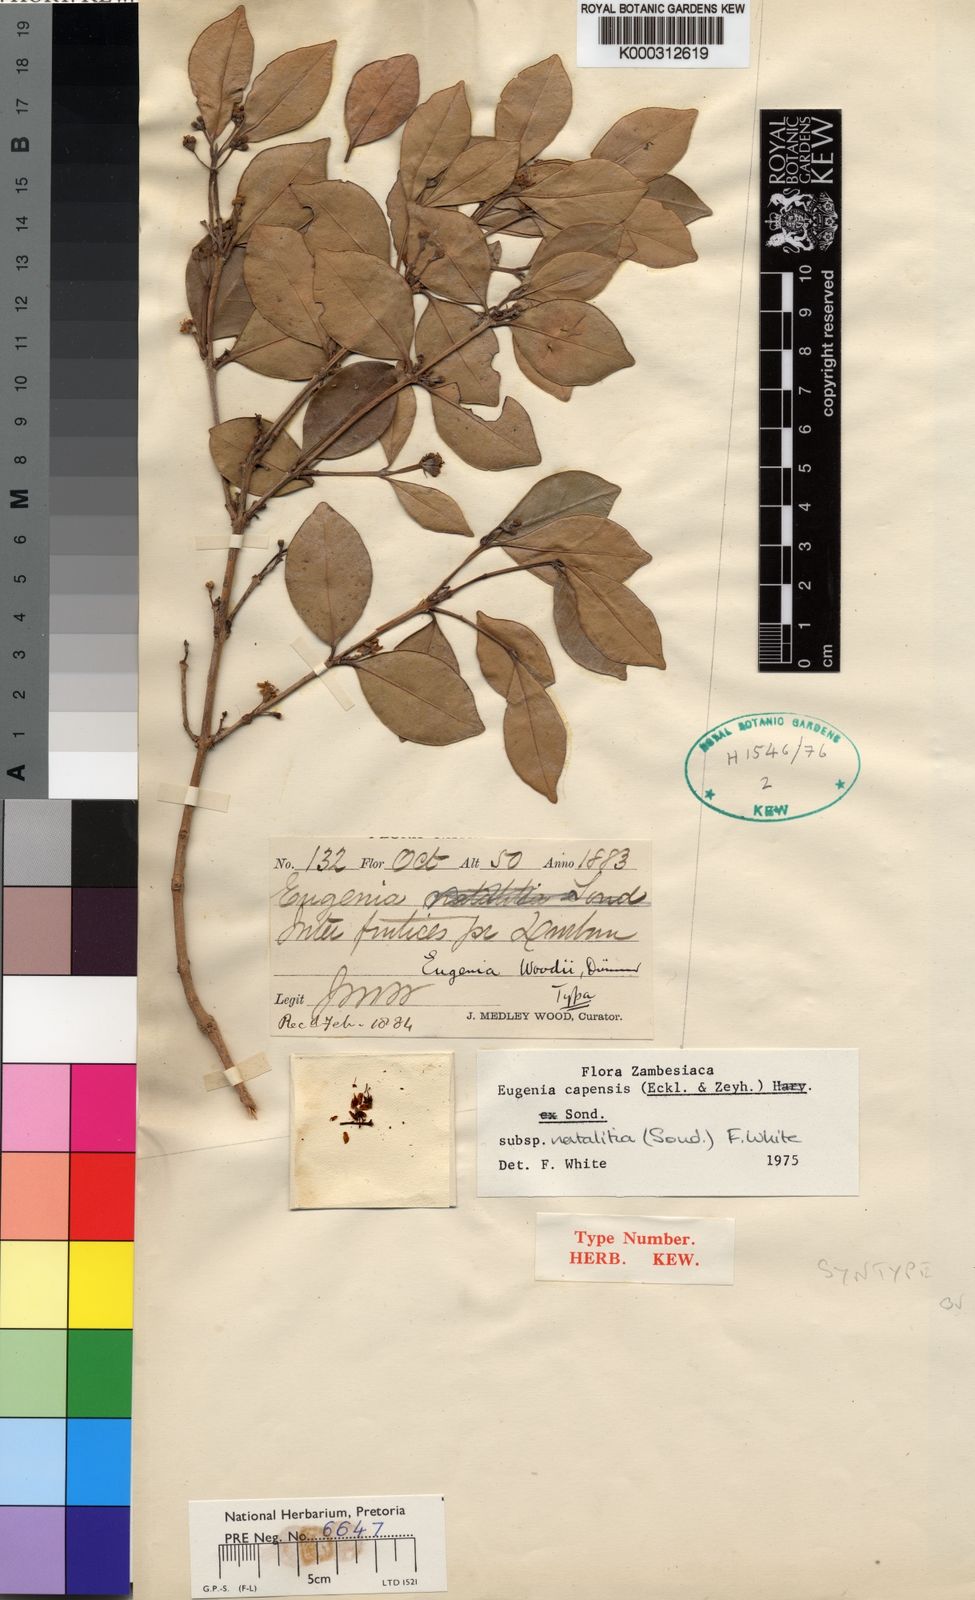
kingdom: Plantae
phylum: Tracheophyta
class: Magnoliopsida
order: Myrtales
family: Myrtaceae
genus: Eugenia
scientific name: Eugenia natalitia
